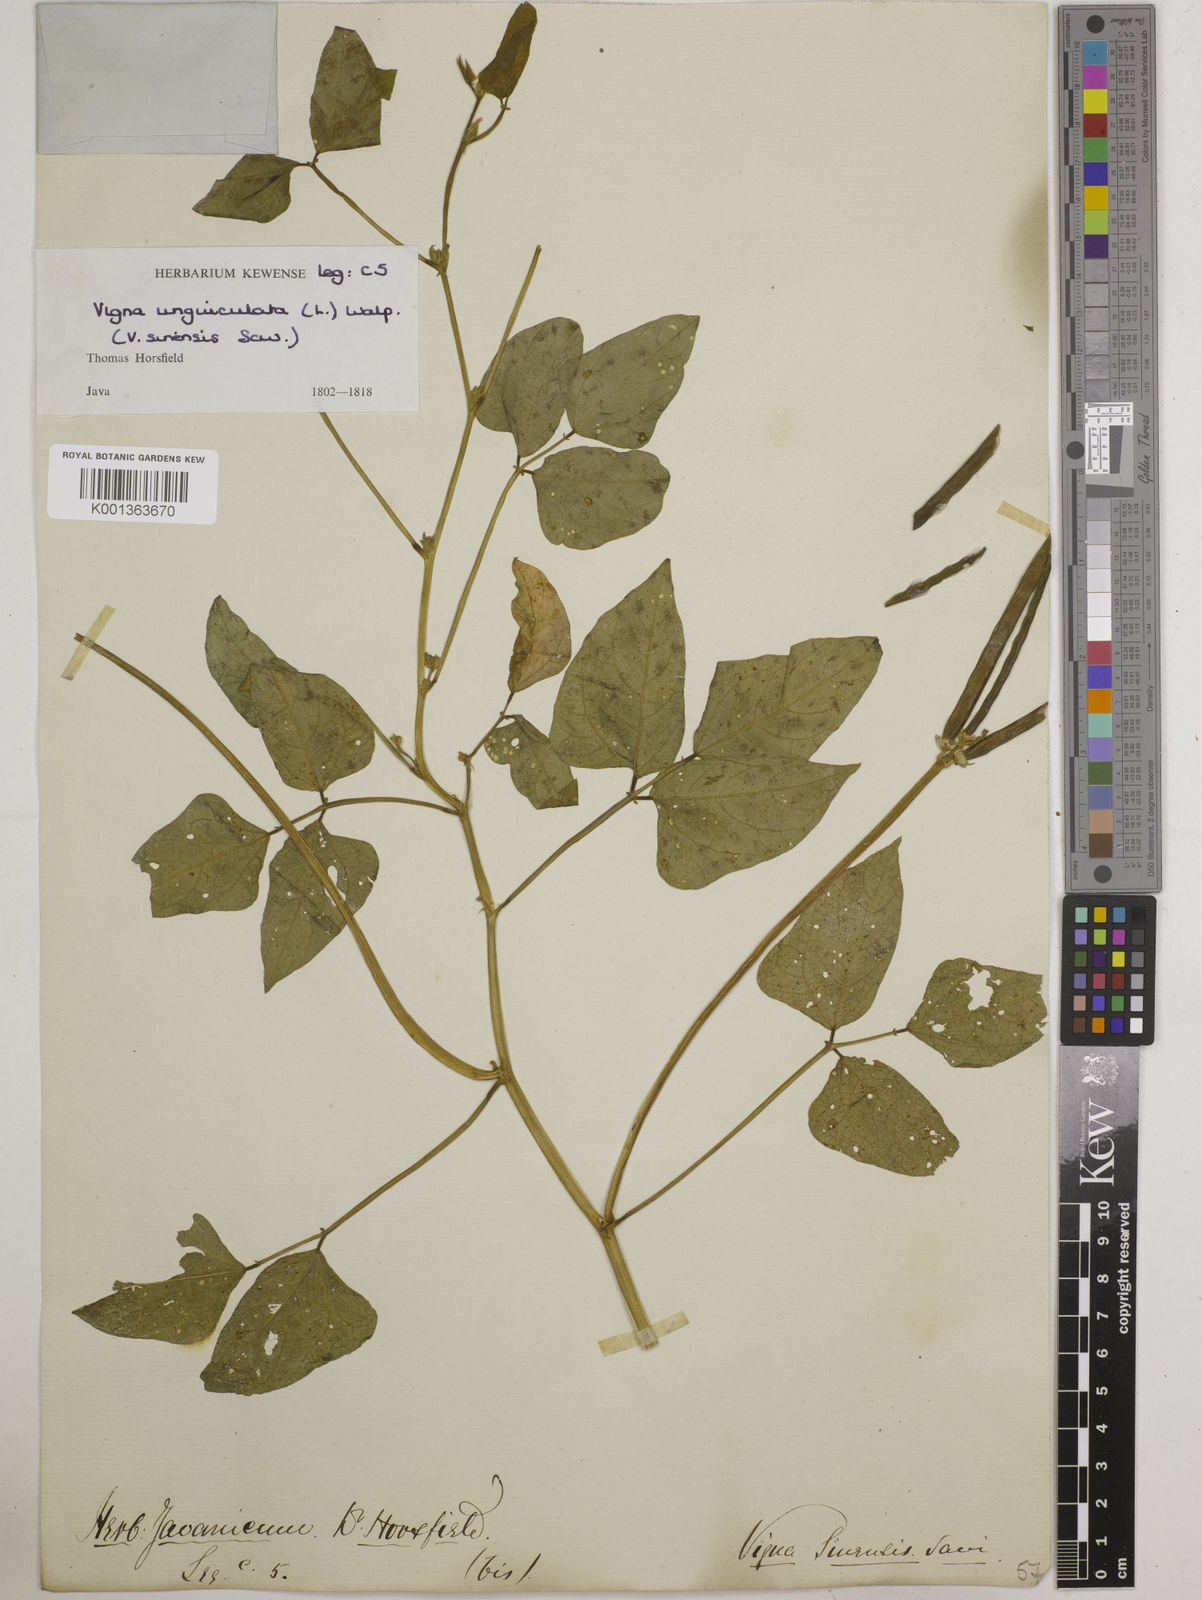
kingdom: Plantae
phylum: Tracheophyta
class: Magnoliopsida
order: Fabales
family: Fabaceae
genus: Vigna
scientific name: Vigna unguiculata
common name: Cowpea
